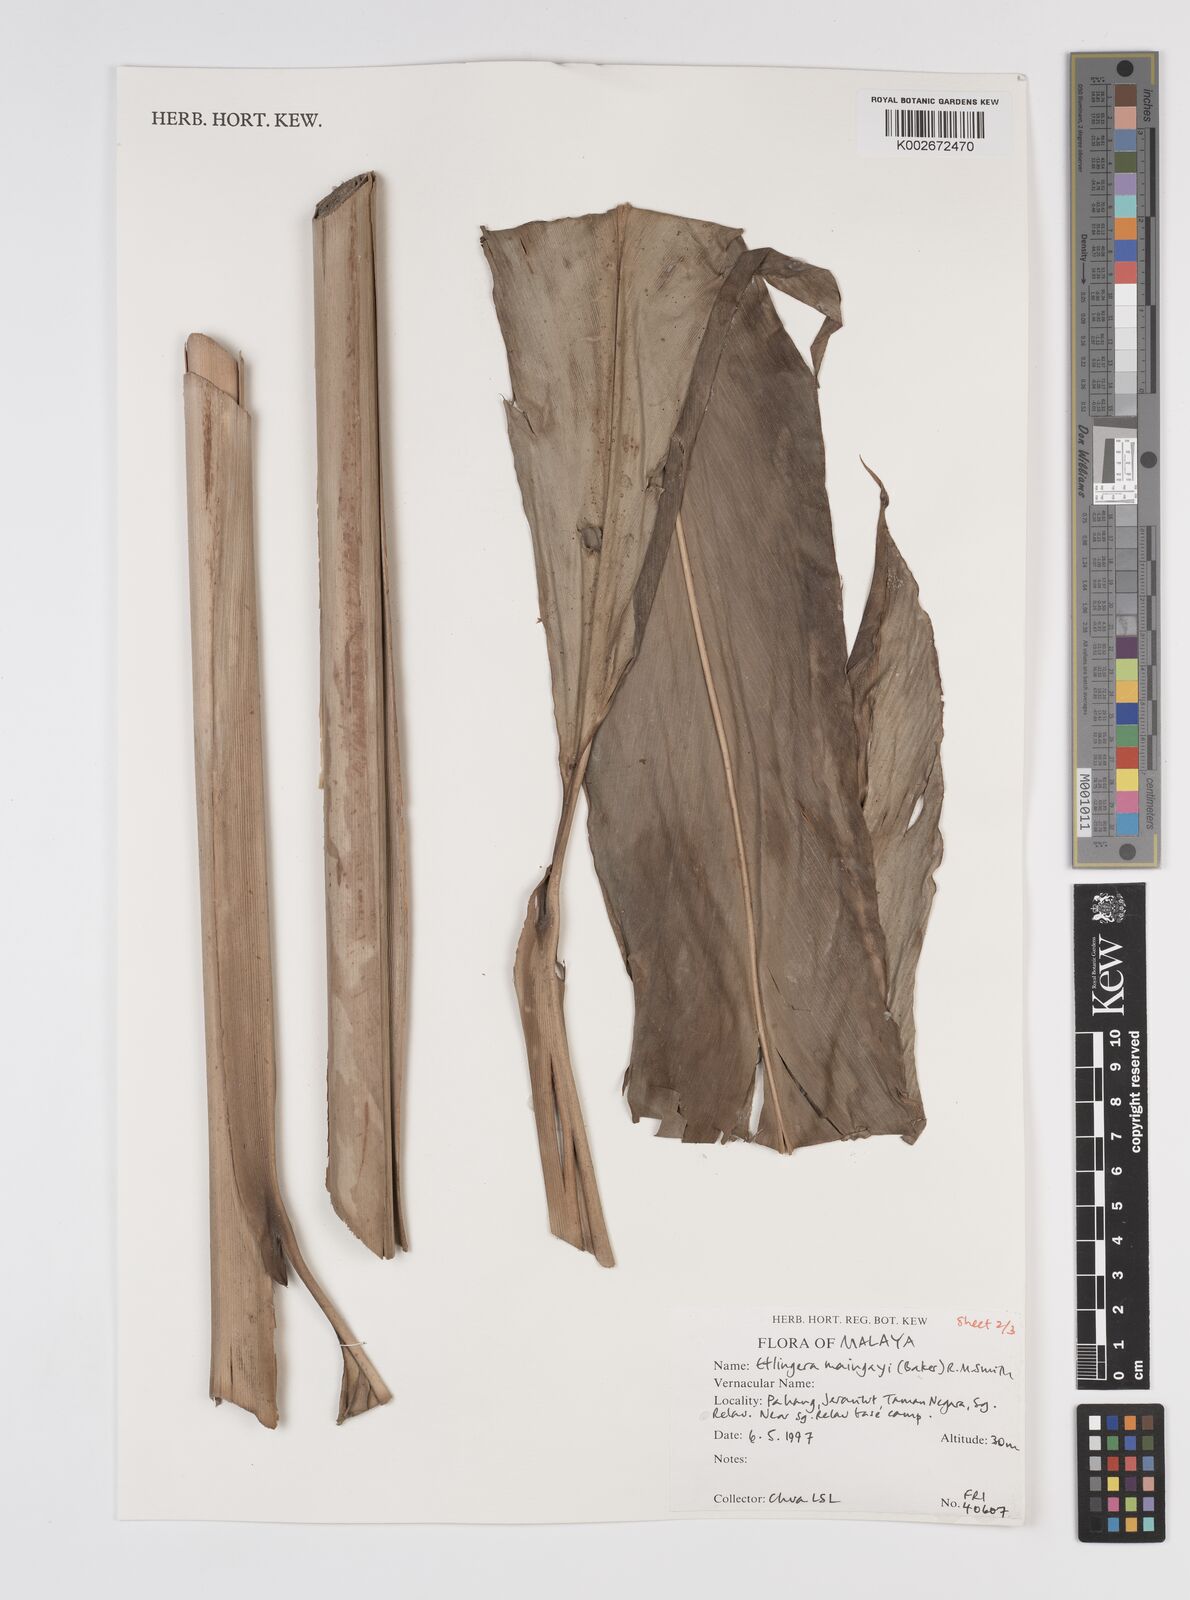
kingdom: Plantae
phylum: Tracheophyta
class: Liliopsida
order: Zingiberales
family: Zingiberaceae
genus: Etlingera
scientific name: Etlingera maingayi
